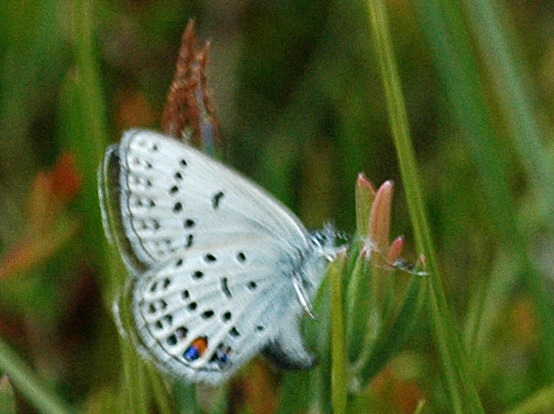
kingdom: Animalia
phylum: Arthropoda
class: Insecta
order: Lepidoptera
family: Lycaenidae
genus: Vacciniina
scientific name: Vacciniina optilete
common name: Bølleblåfugl
